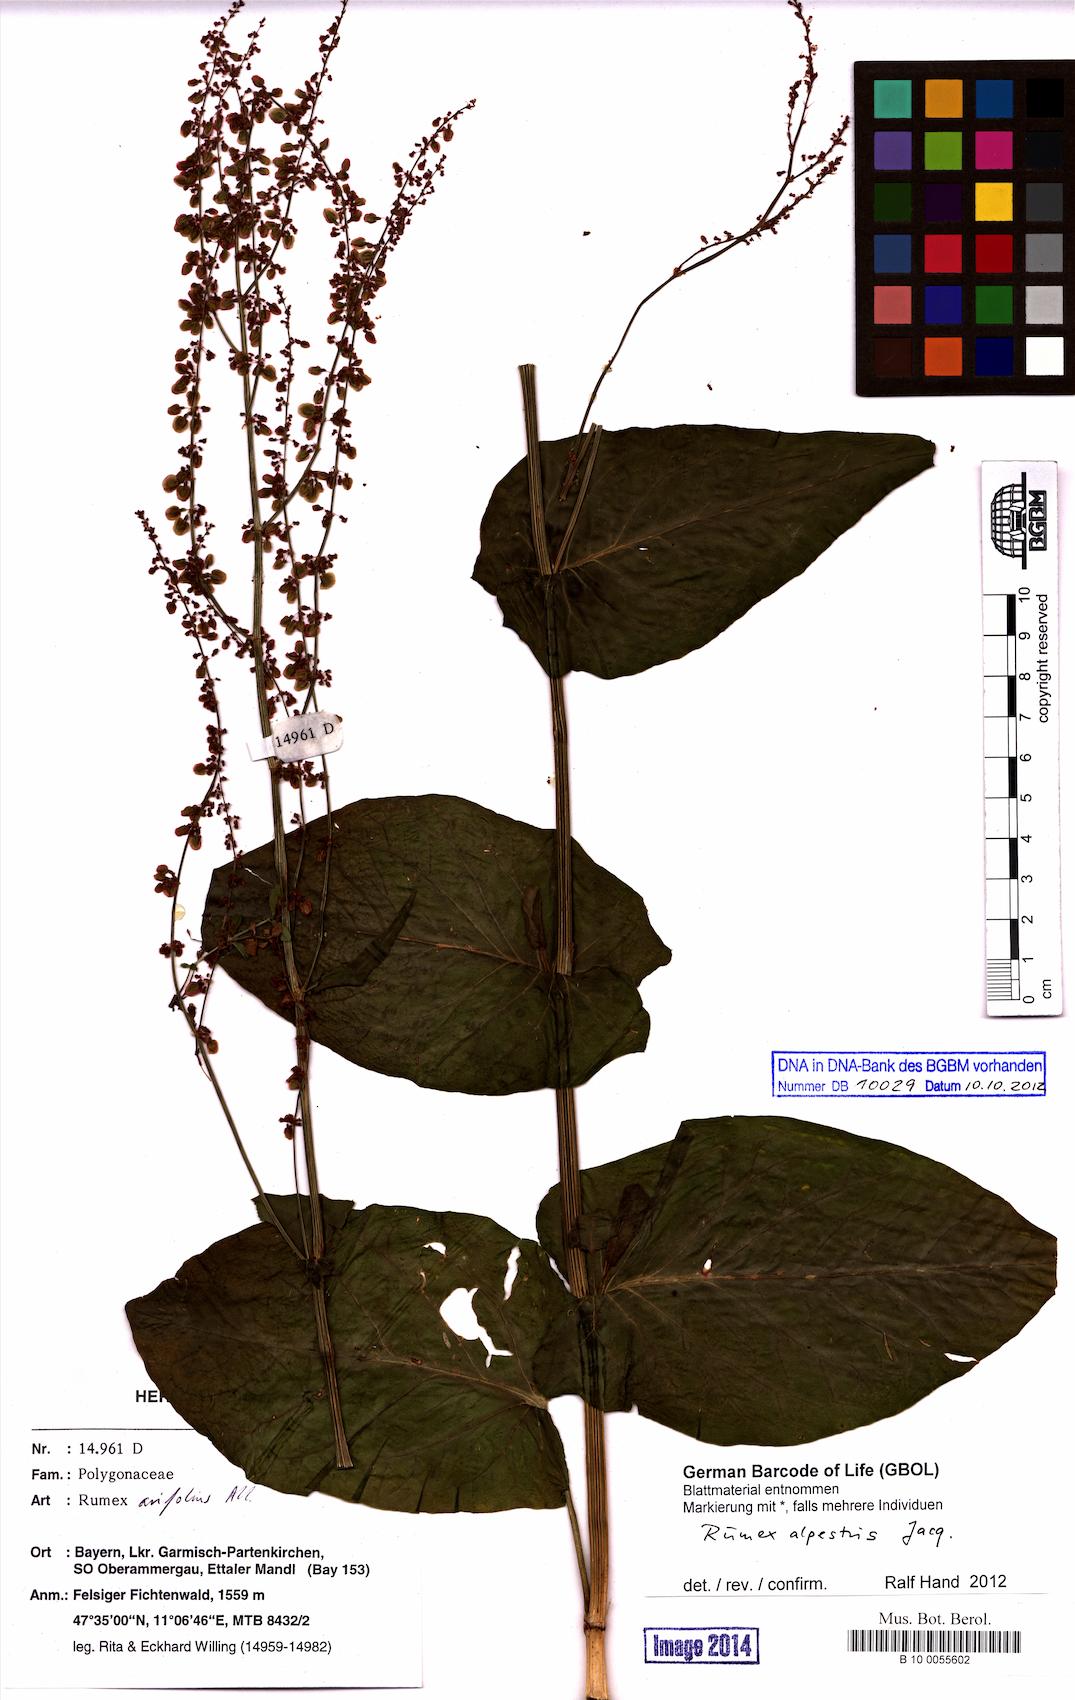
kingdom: Plantae
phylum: Tracheophyta
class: Magnoliopsida
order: Caryophyllales
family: Polygonaceae
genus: Rumex
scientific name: Rumex scutatus
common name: French sorrel
